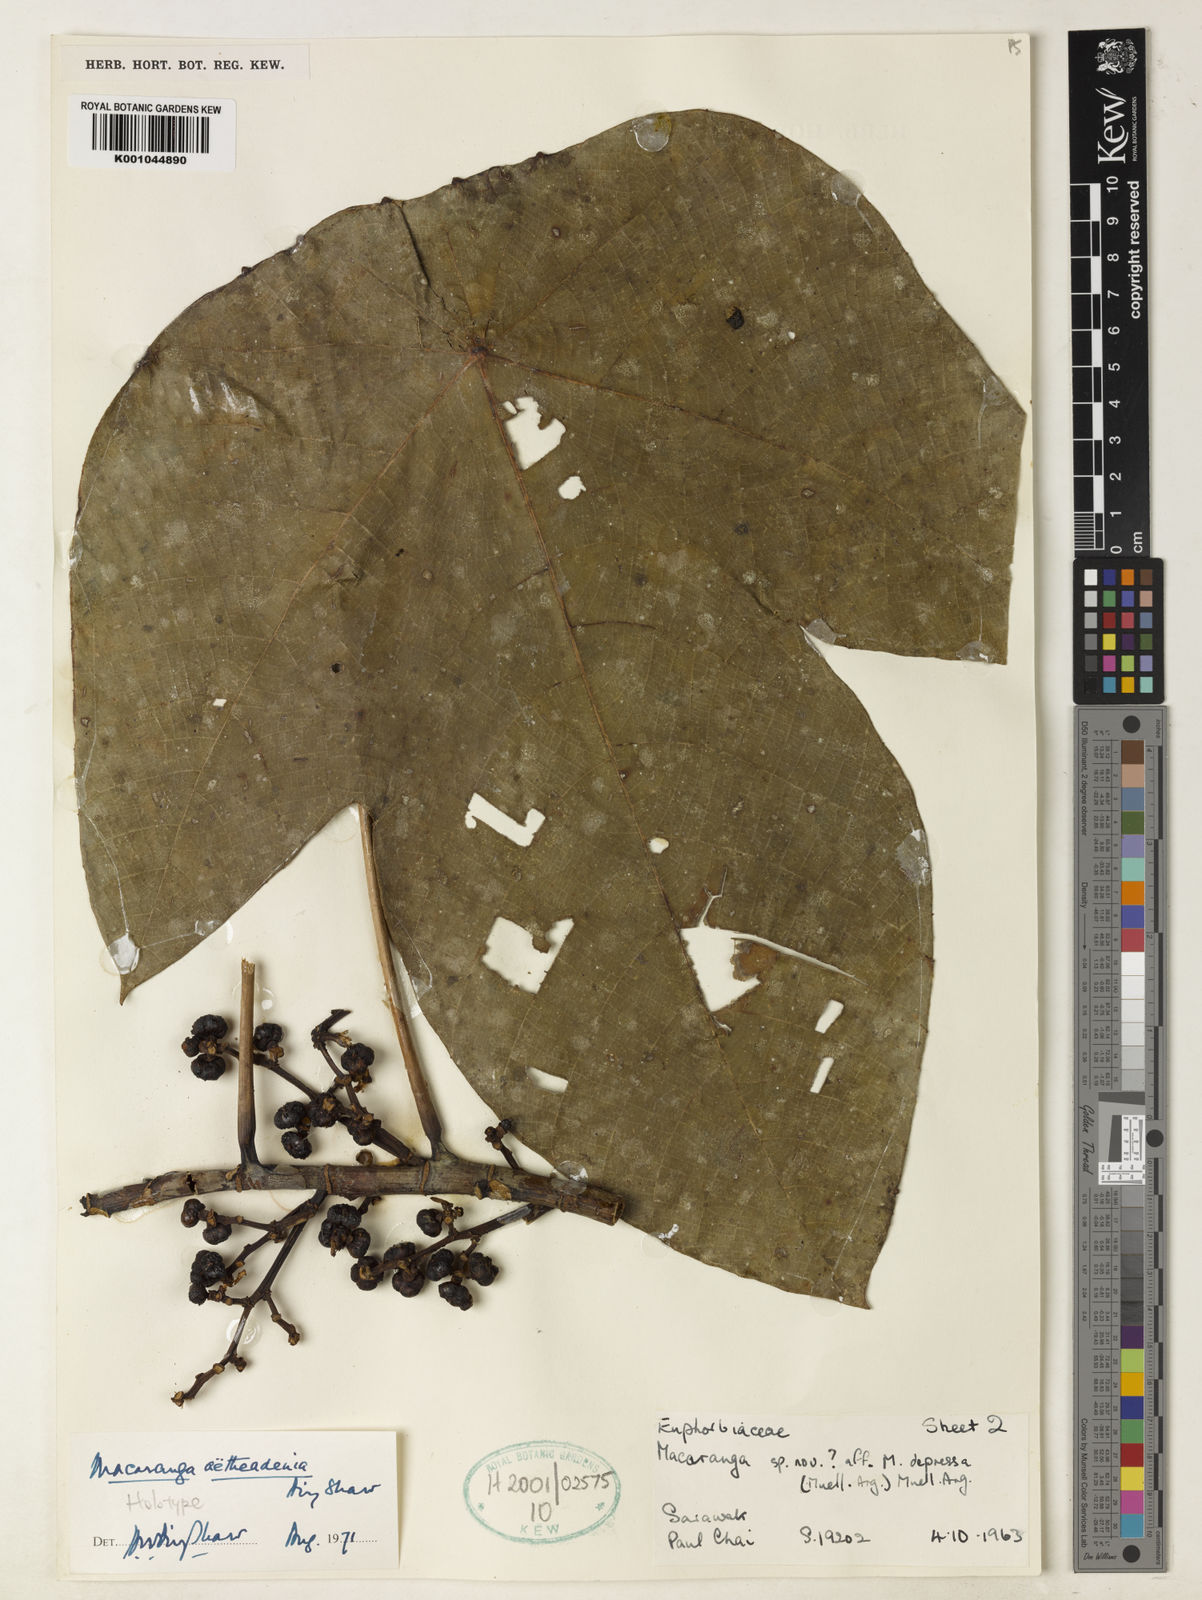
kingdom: Plantae
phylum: Tracheophyta
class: Magnoliopsida
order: Malpighiales
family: Euphorbiaceae
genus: Macaranga
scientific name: Macaranga aetheadenia
